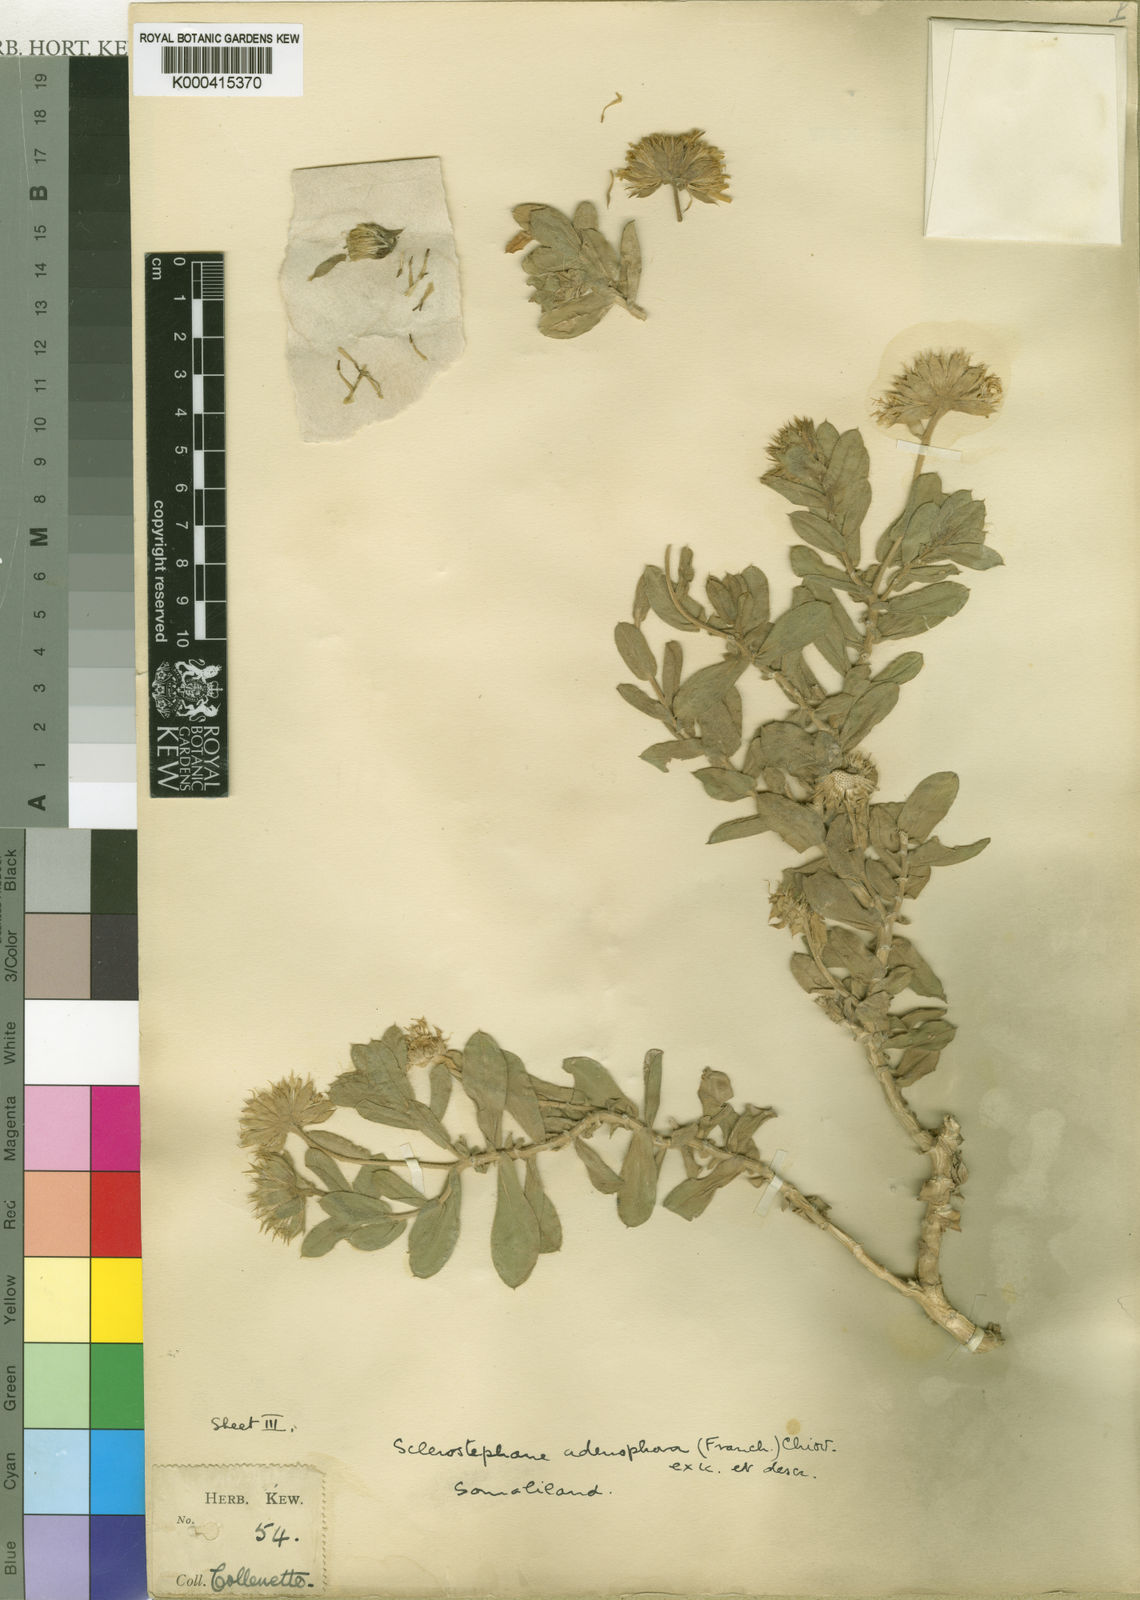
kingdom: Plantae
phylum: Tracheophyta
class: Magnoliopsida
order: Asterales
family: Asteraceae
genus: Pulicaria
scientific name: Pulicaria collenettei
